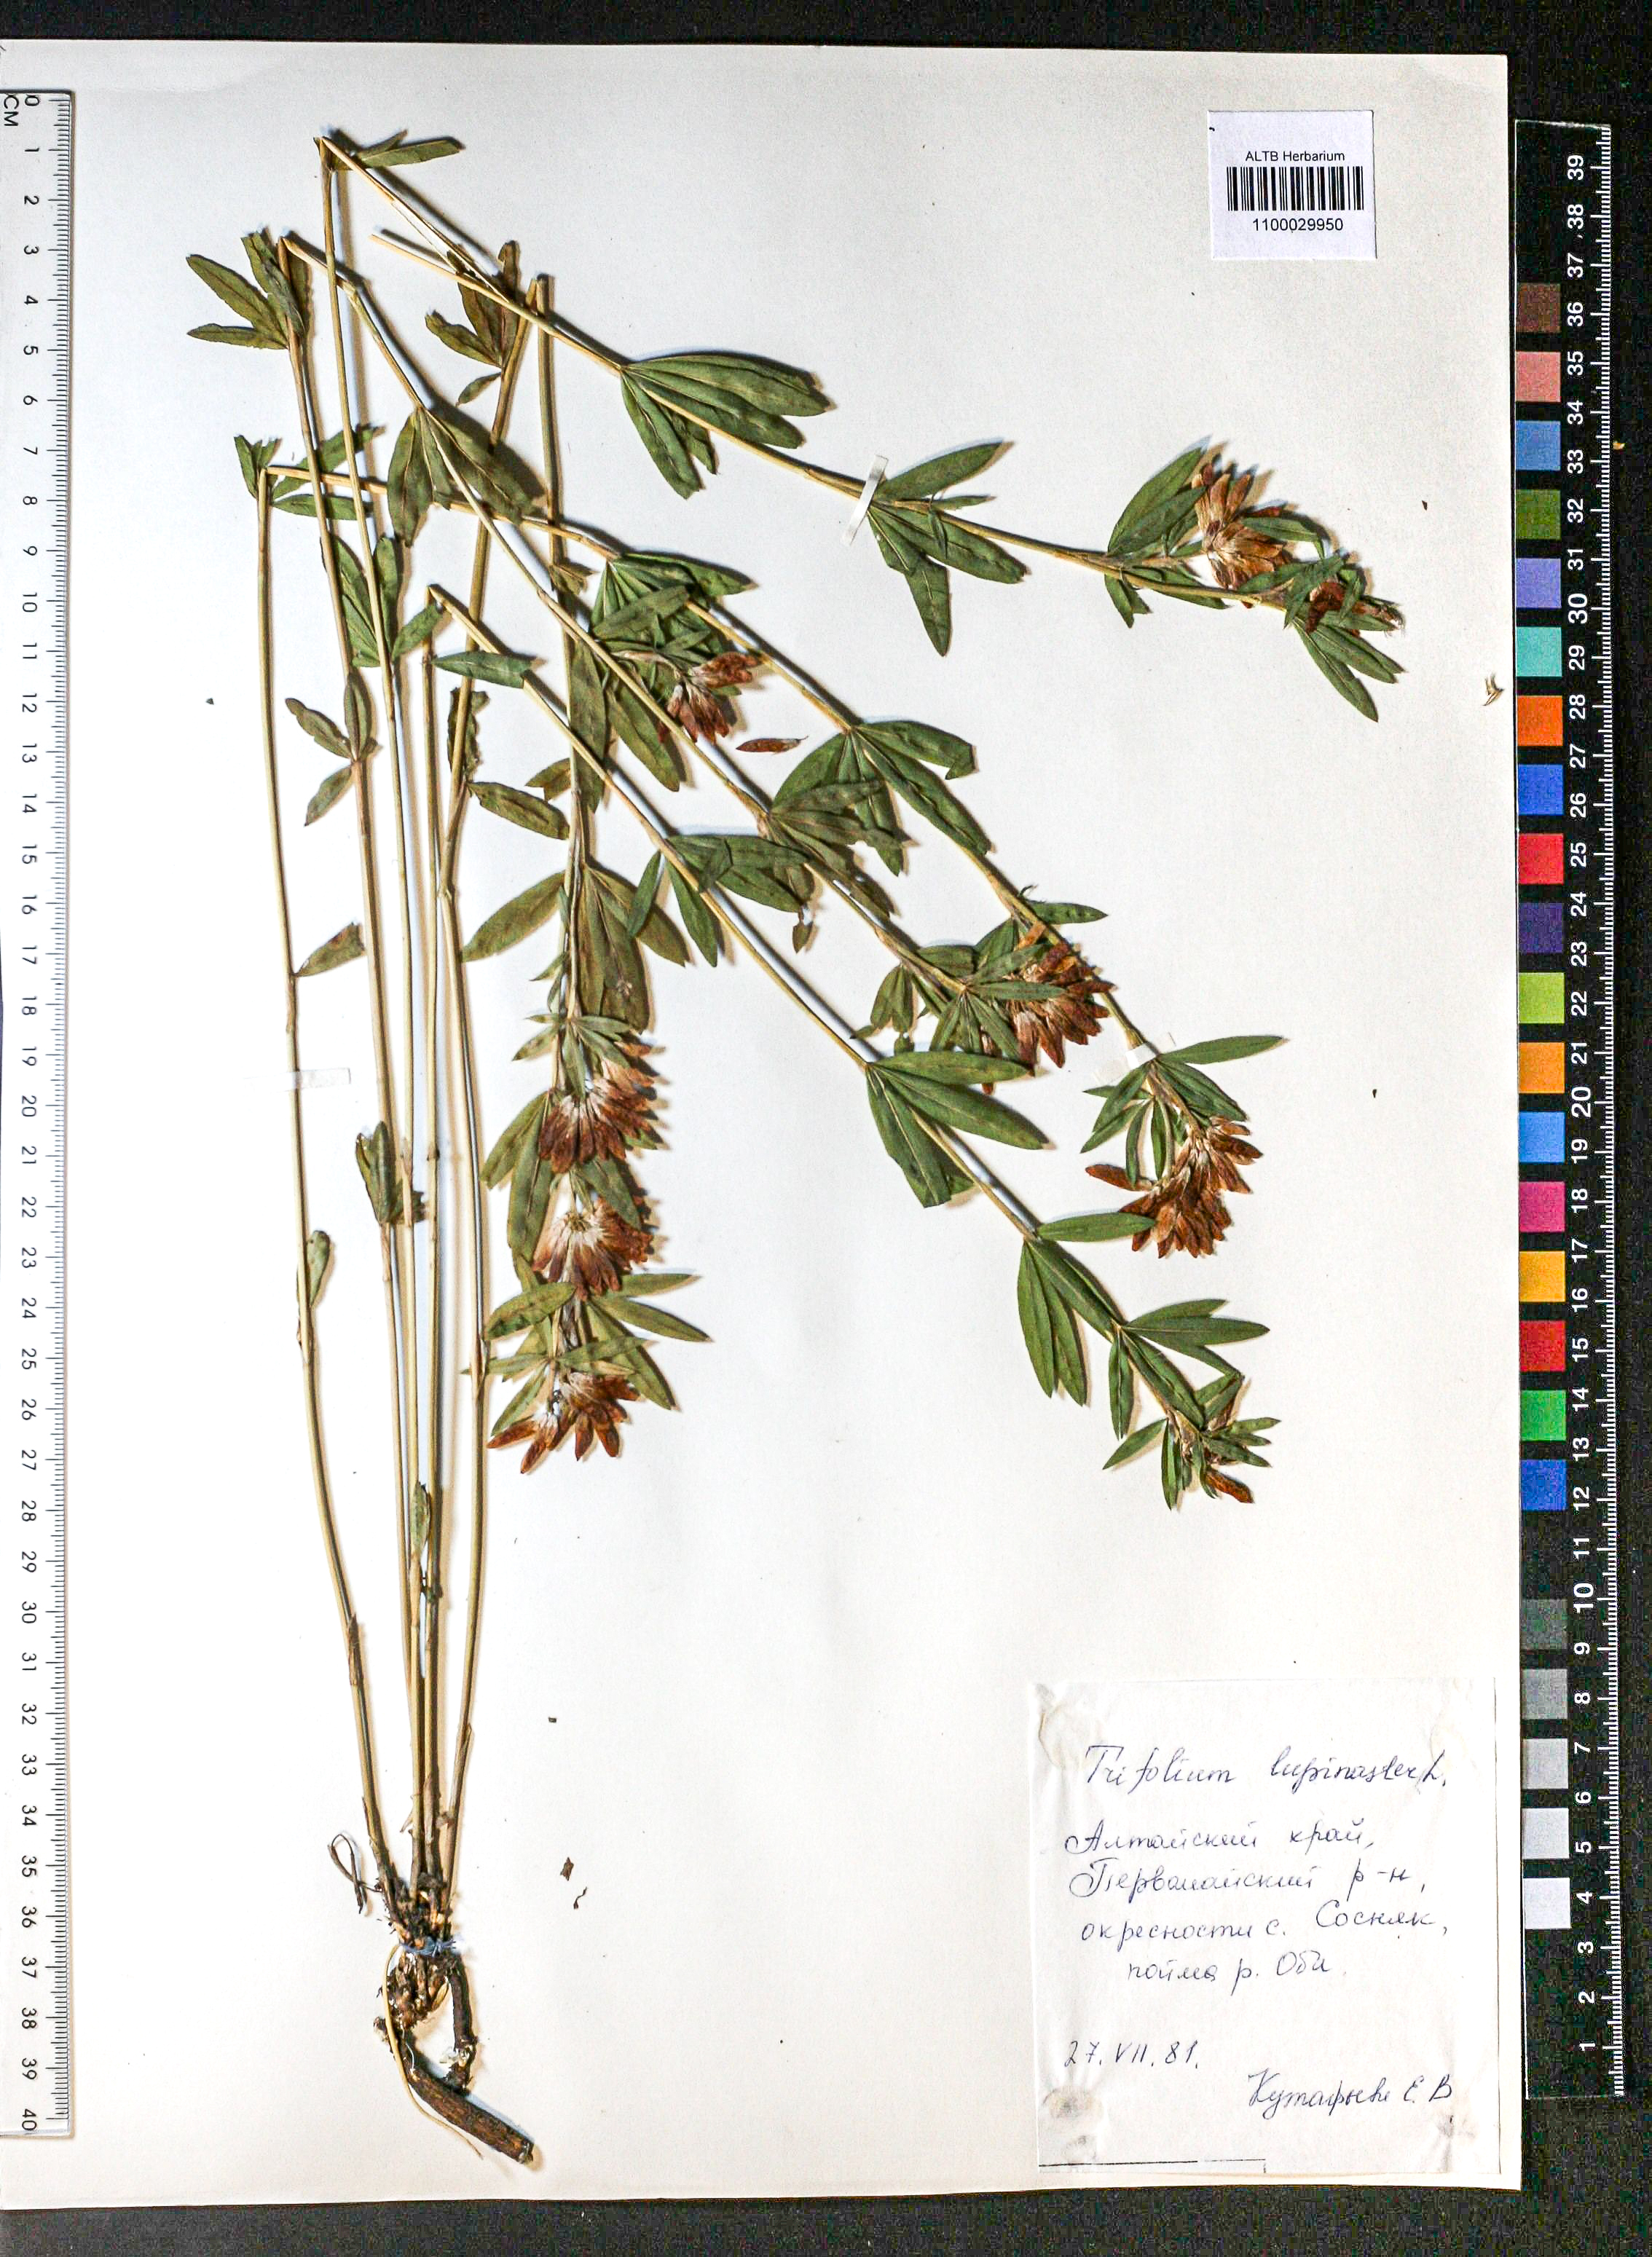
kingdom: Plantae
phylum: Tracheophyta
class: Magnoliopsida
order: Fabales
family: Fabaceae
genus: Trifolium
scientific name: Trifolium lupinaster
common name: Lupine clover
